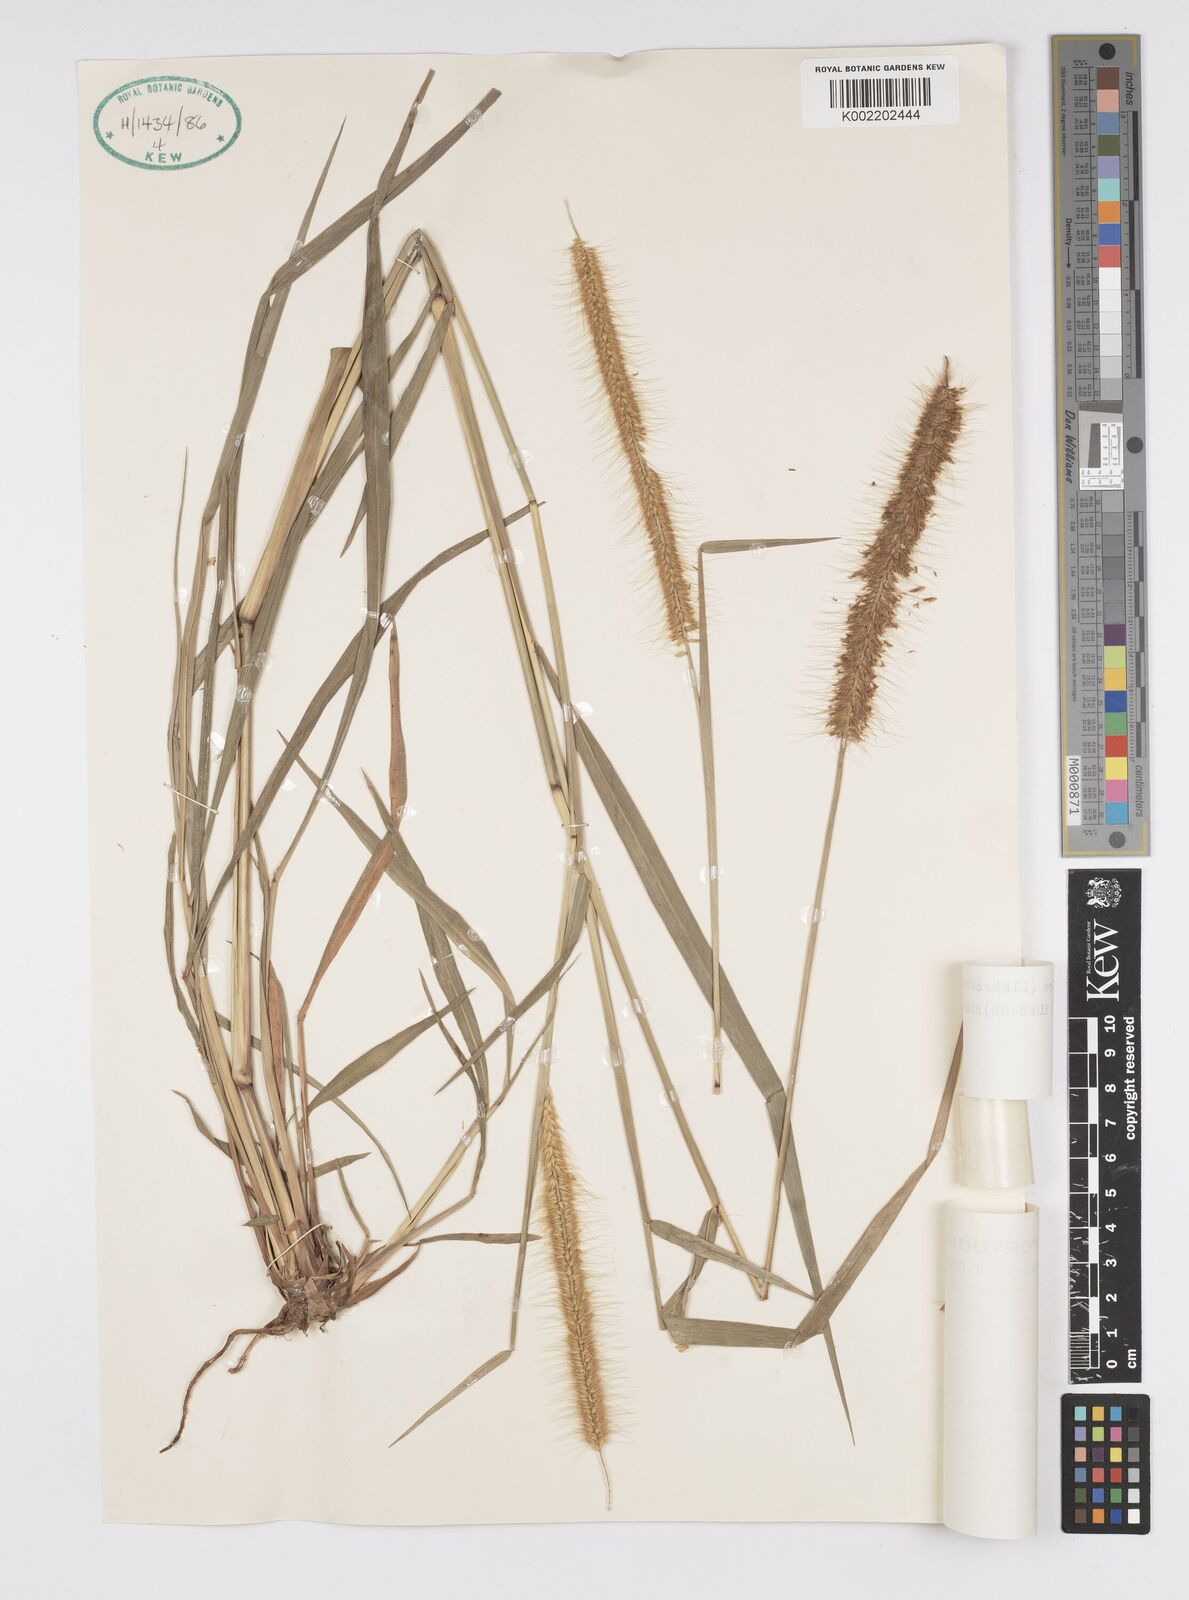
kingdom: Plantae
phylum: Tracheophyta
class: Liliopsida
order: Poales
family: Poaceae
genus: Cenchrus
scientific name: Cenchrus setosus
